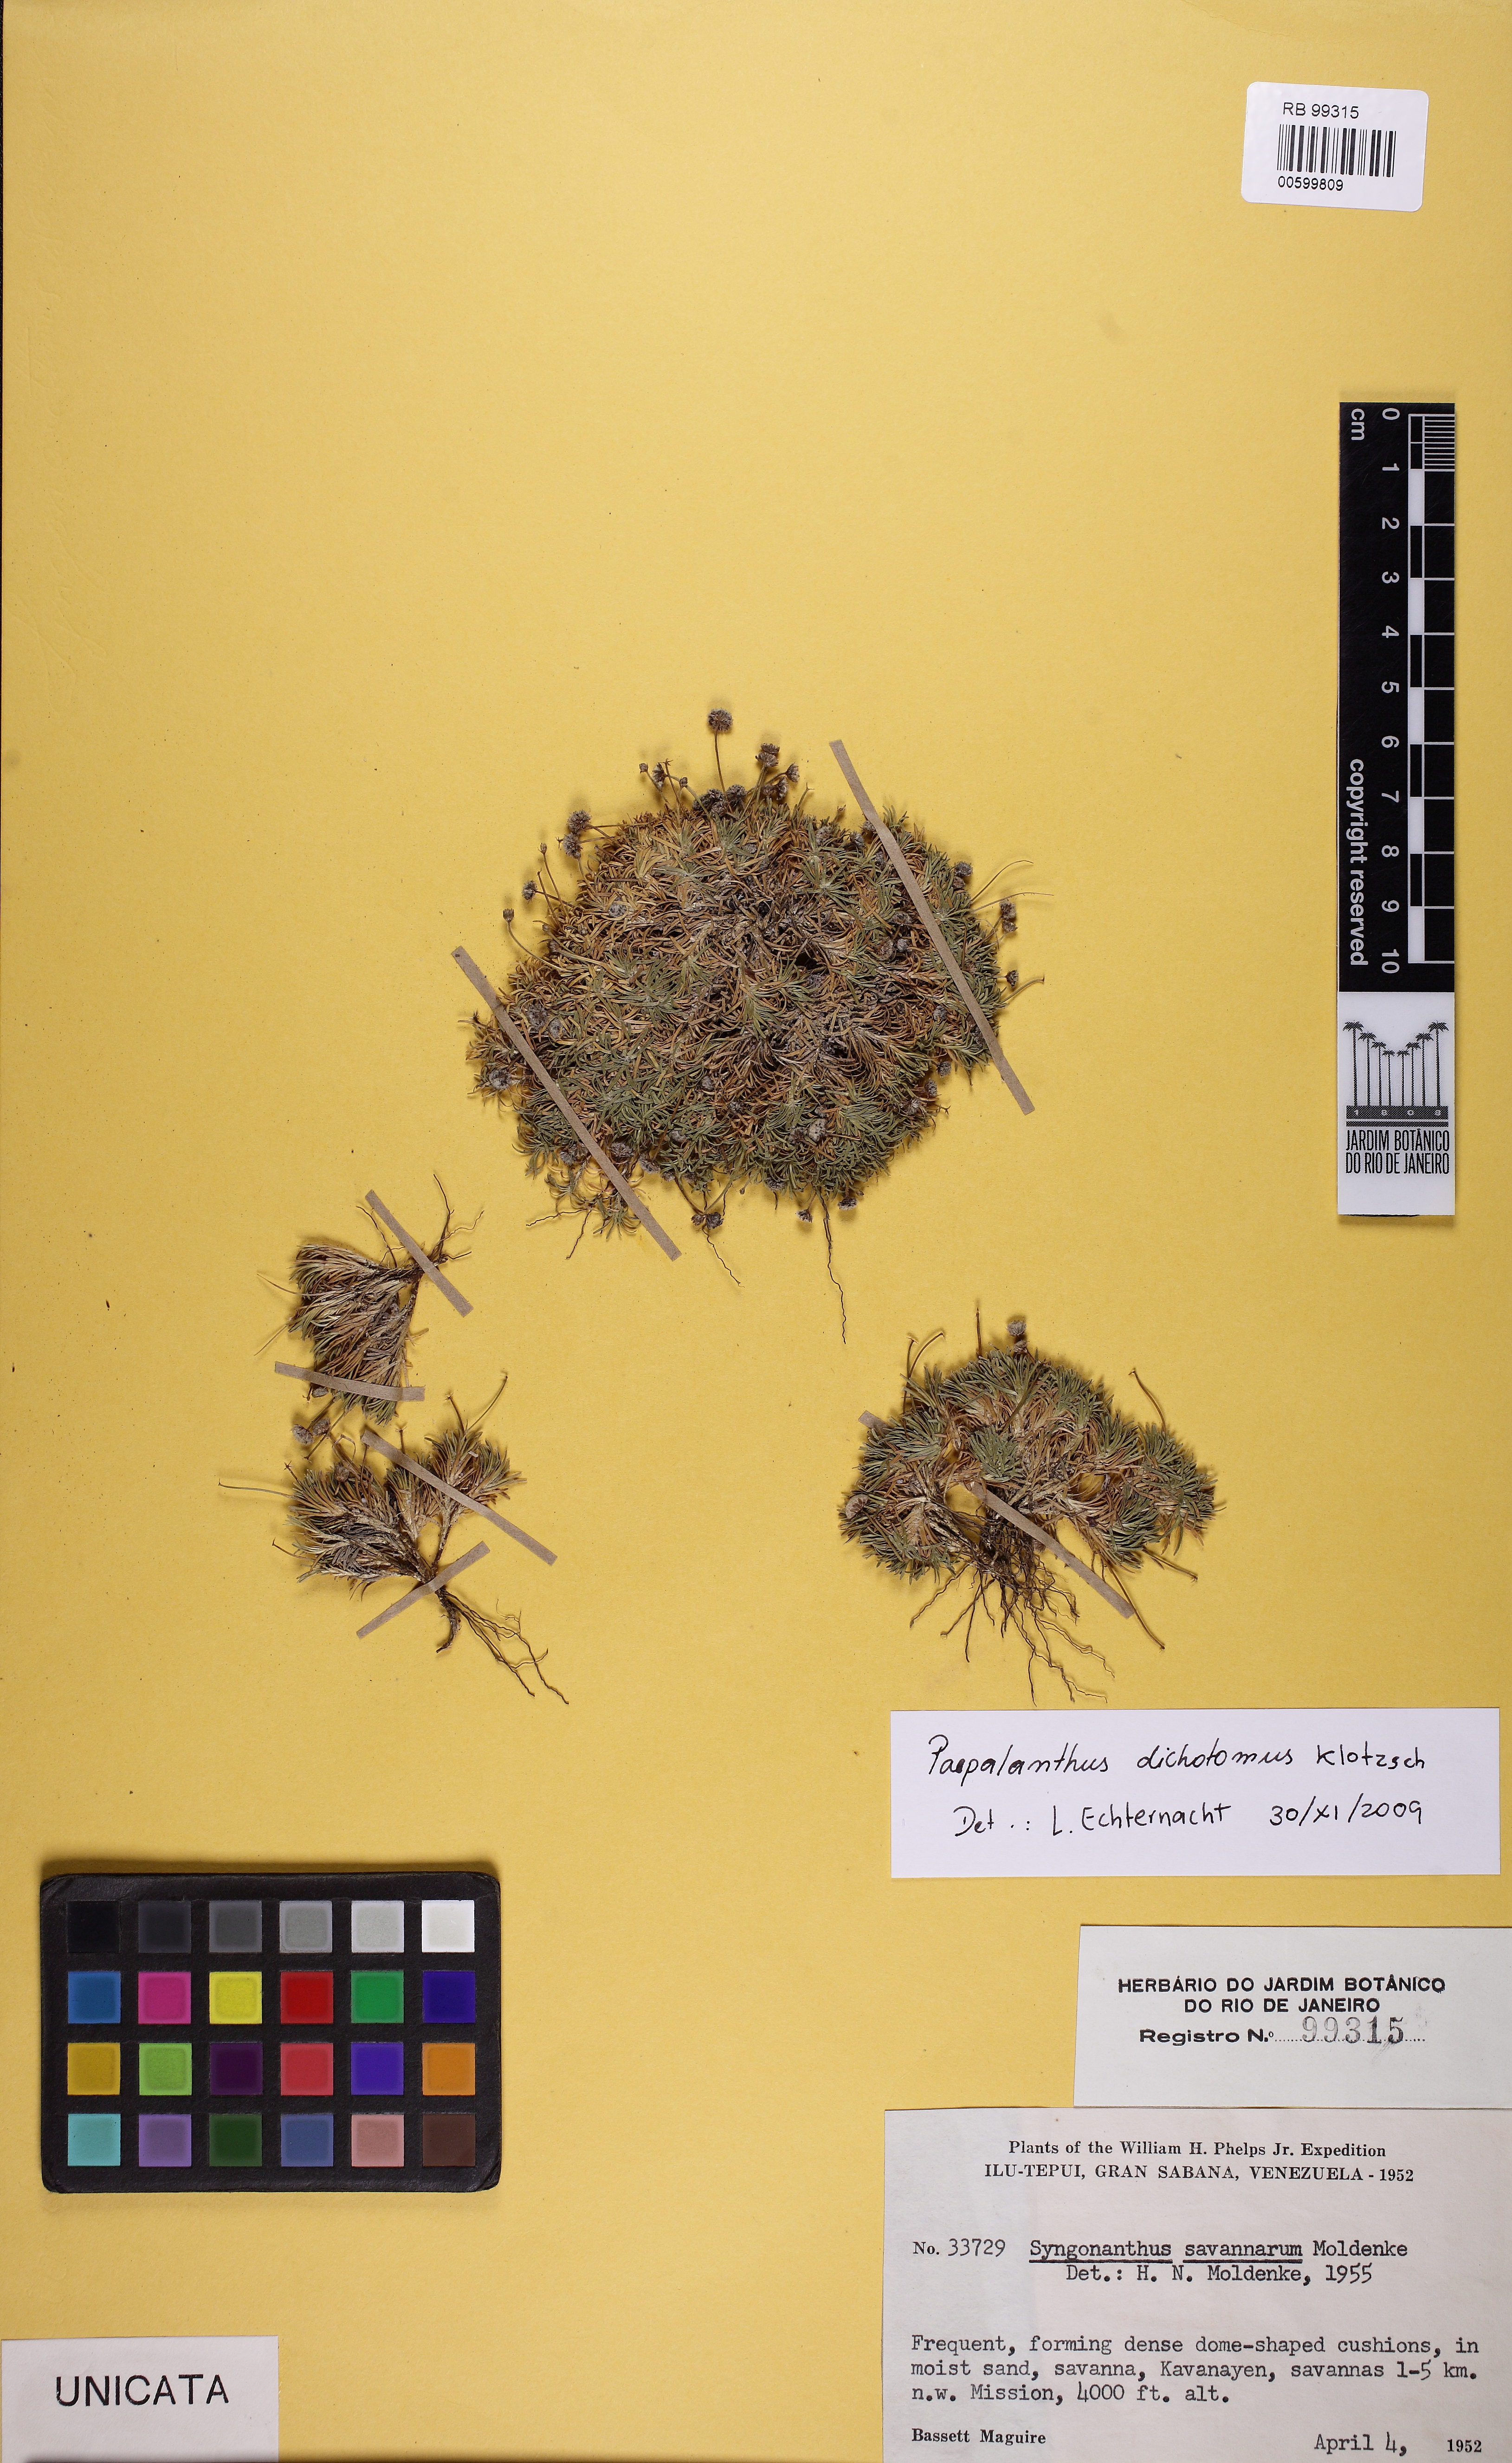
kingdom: Plantae
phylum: Tracheophyta
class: Liliopsida
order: Poales
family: Eriocaulaceae
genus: Paepalanthus
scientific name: Paepalanthus dichotomus
